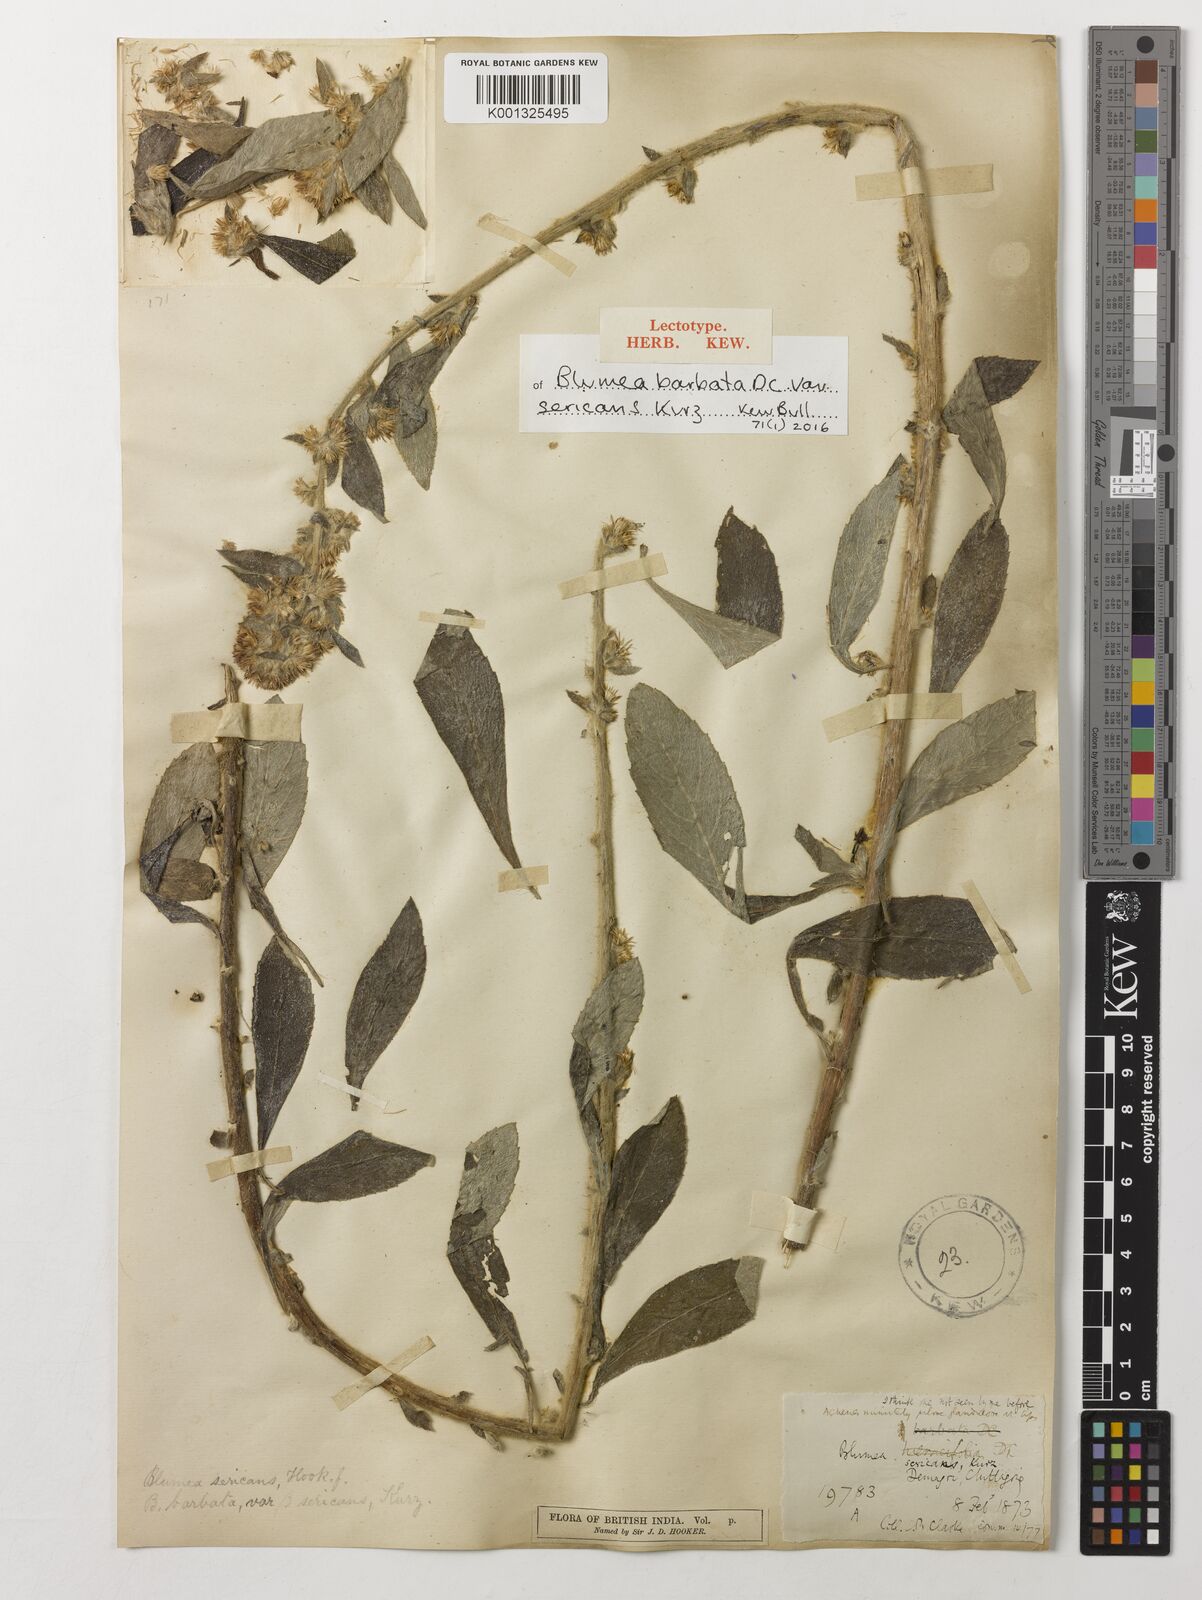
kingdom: Plantae
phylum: Tracheophyta
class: Magnoliopsida
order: Asterales
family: Asteraceae
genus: Blumea
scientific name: Blumea hieraciifolia
